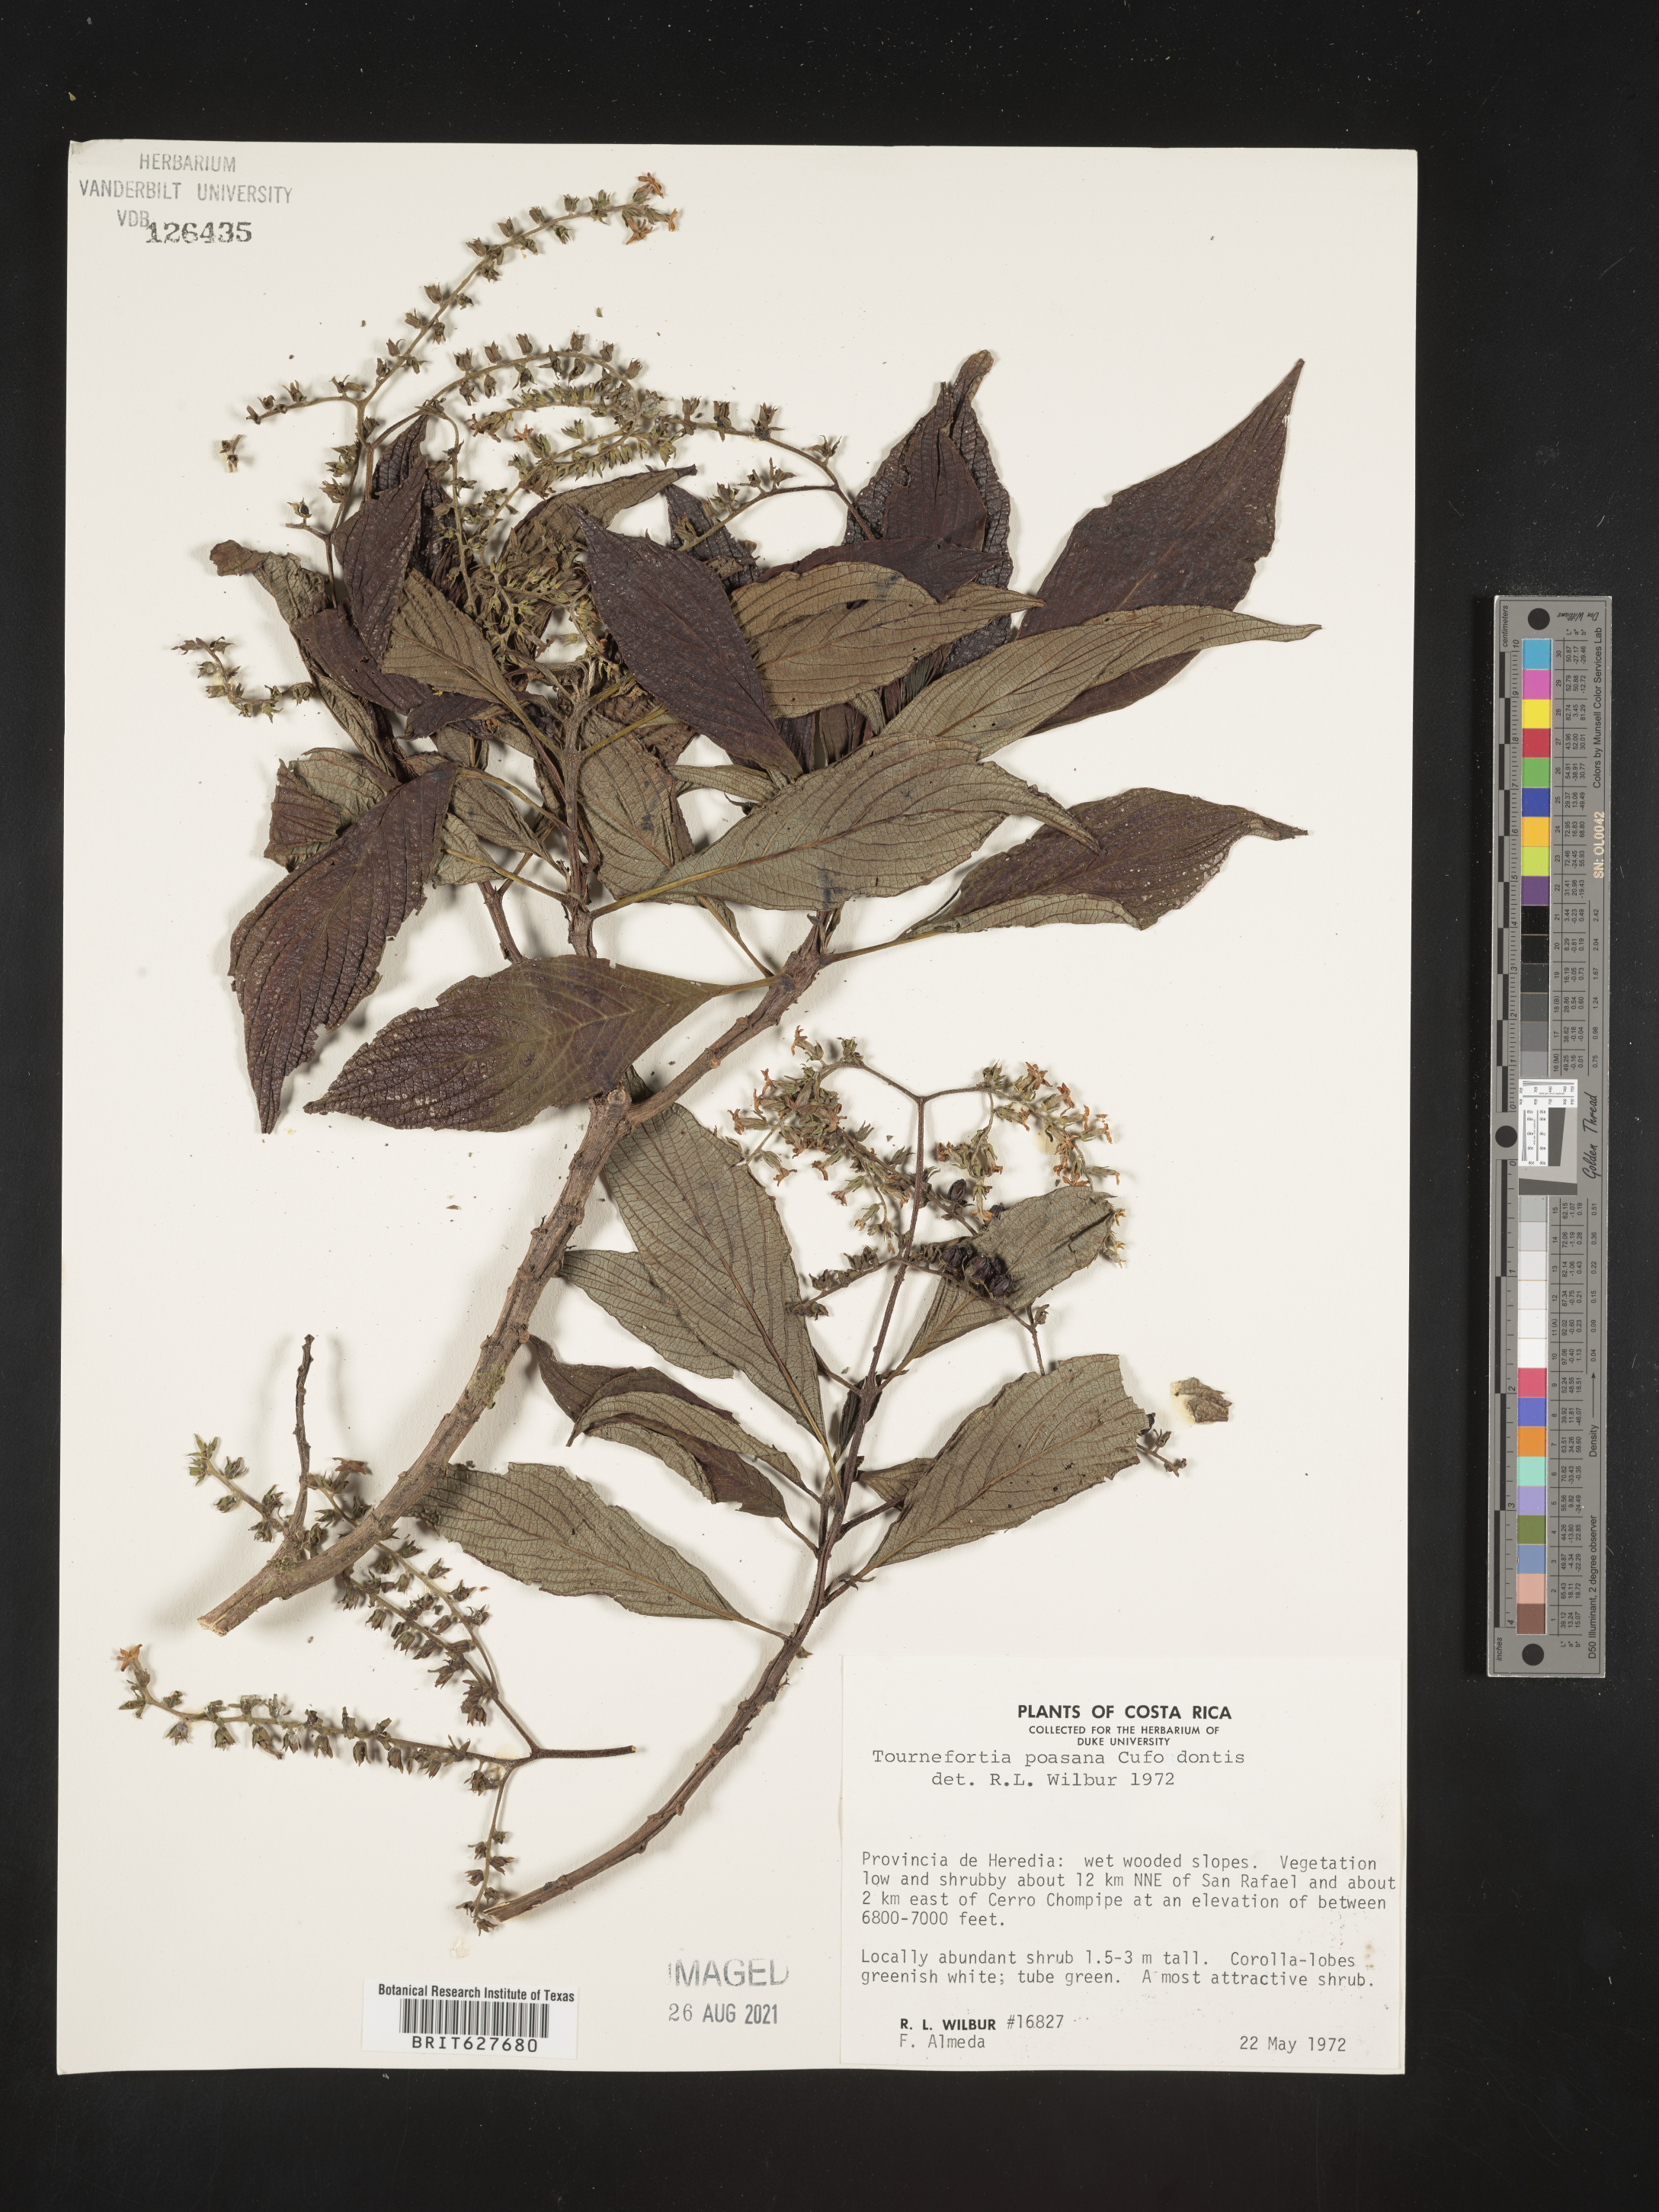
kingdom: Plantae
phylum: Tracheophyta
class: Magnoliopsida
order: Boraginales
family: Heliotropiaceae
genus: Tournefortia
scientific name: Tournefortia subspicata
